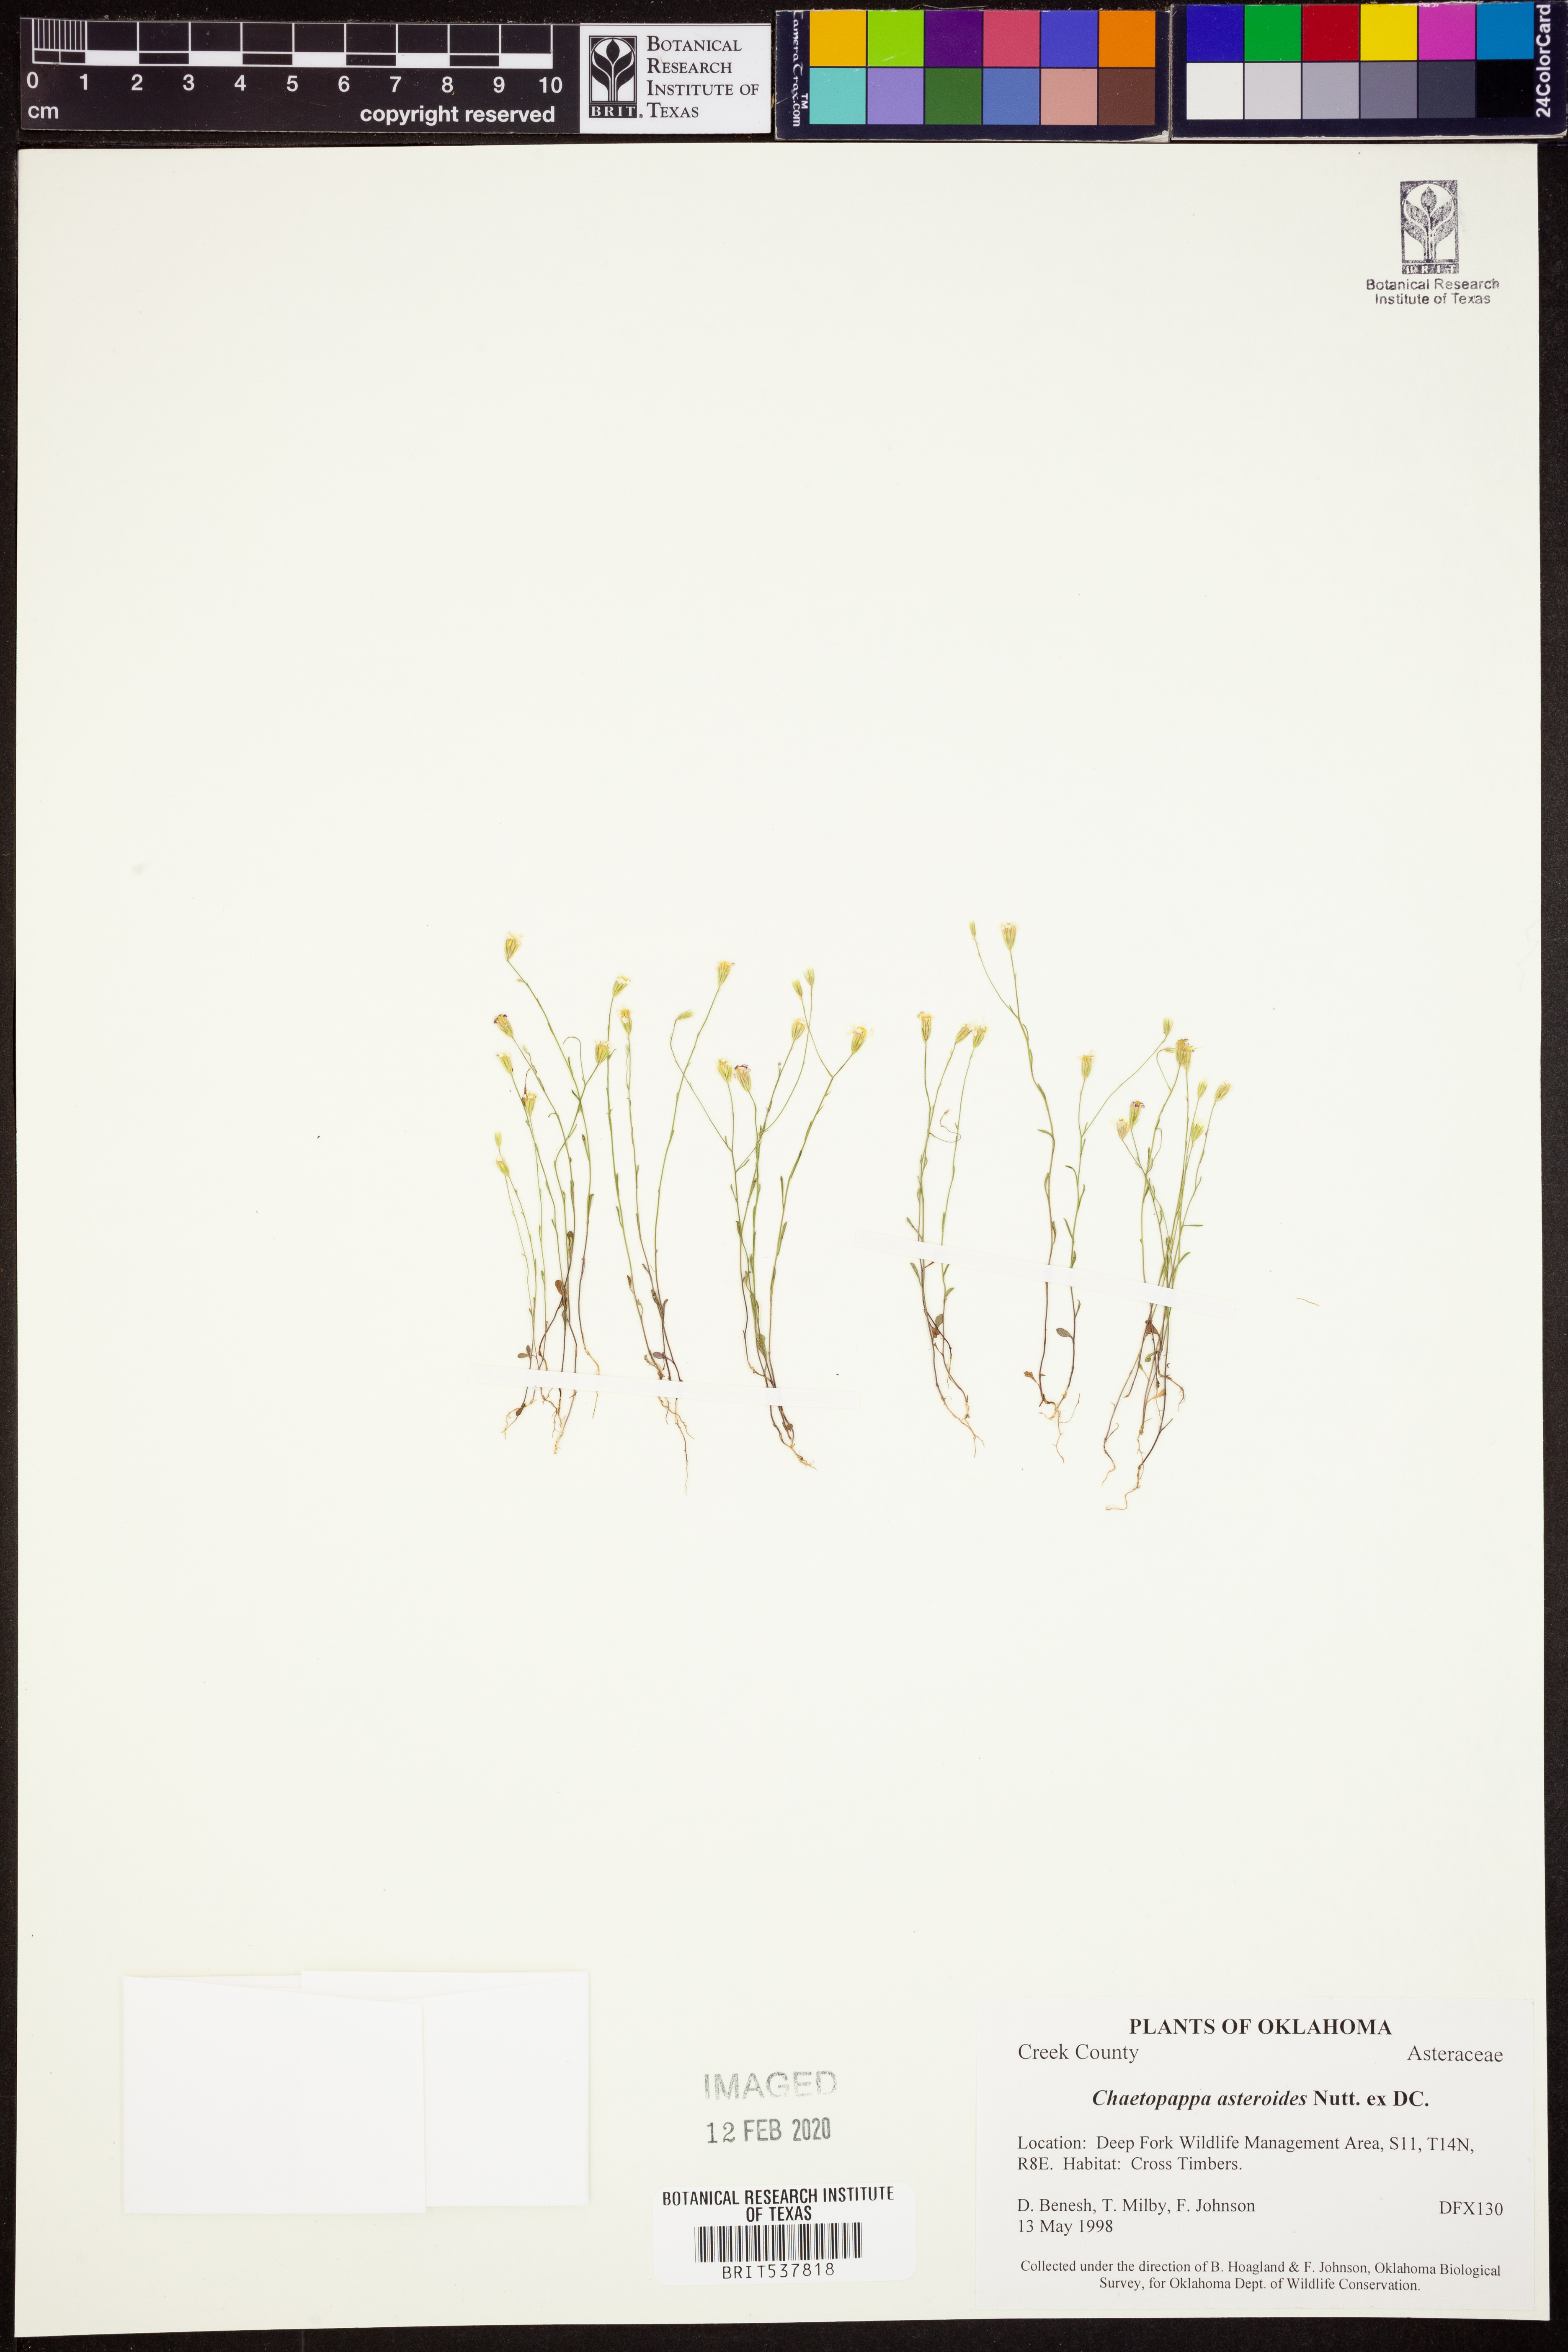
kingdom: Plantae
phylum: Tracheophyta
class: Magnoliopsida
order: Asterales
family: Asteraceae
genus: Chaetopappa
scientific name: Chaetopappa asteroides
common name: Tiny lazy daisy
